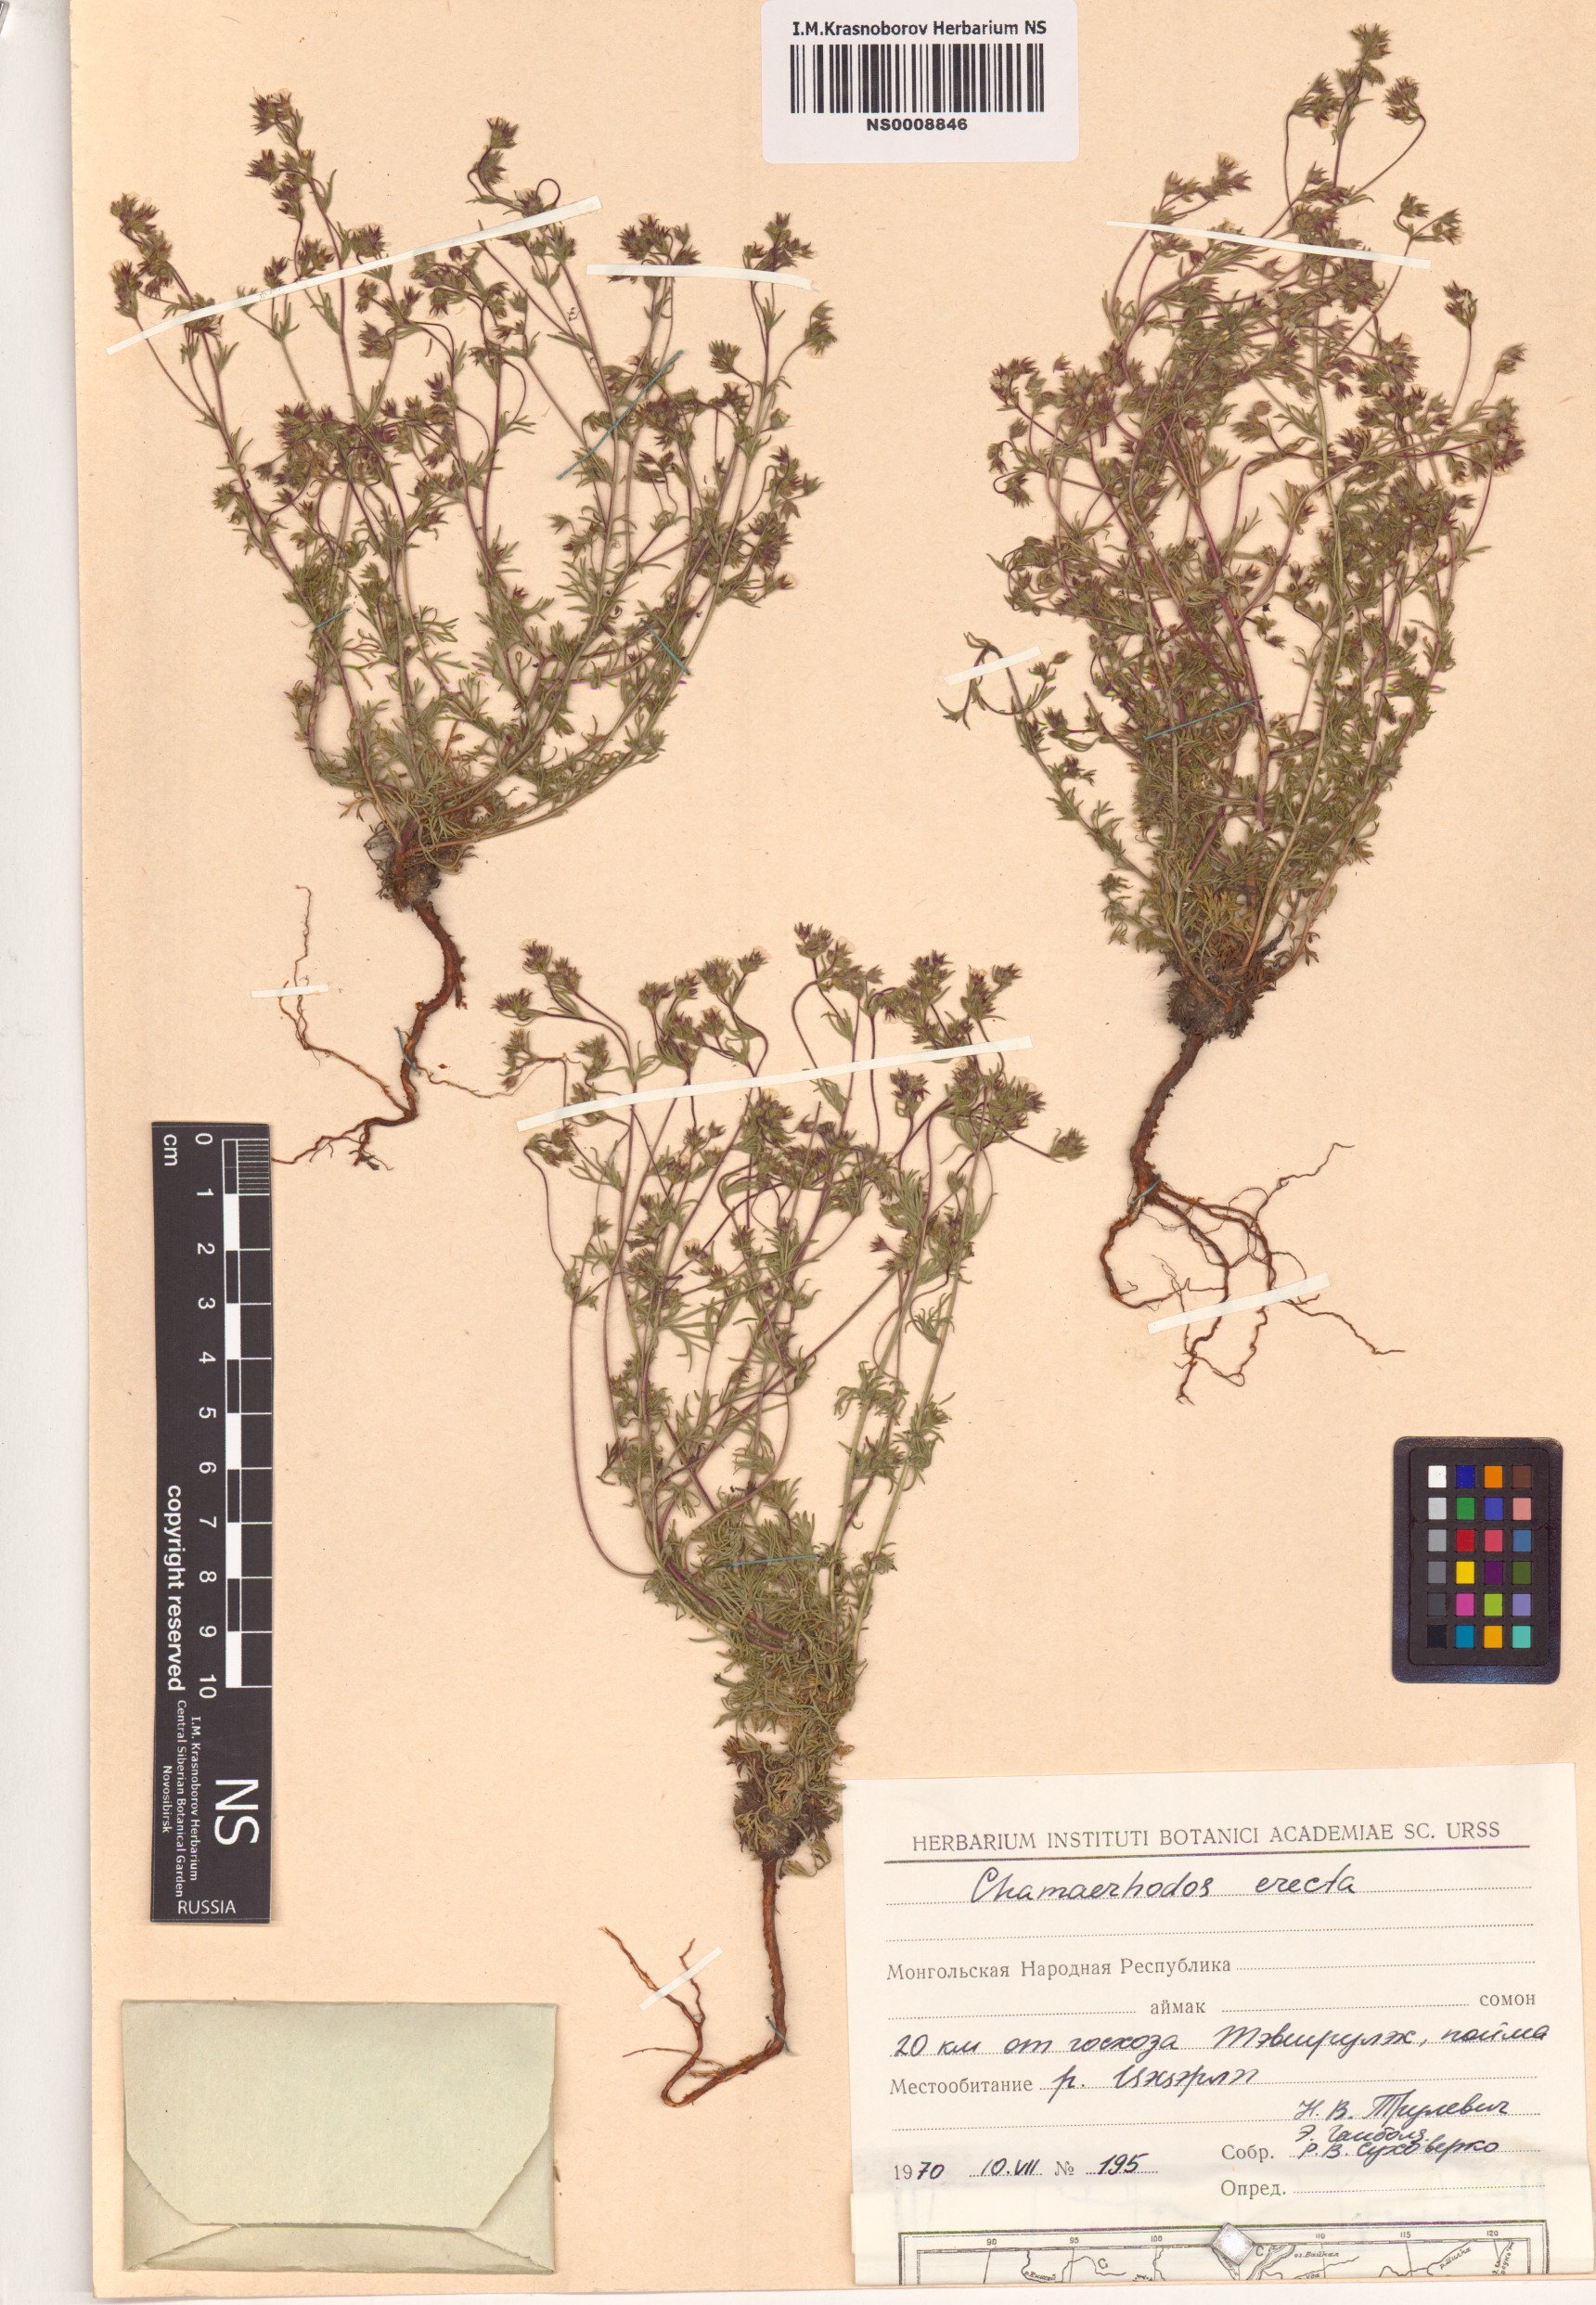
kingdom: Plantae
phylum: Tracheophyta
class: Magnoliopsida
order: Rosales
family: Rosaceae
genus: Chamaerhodos
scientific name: Chamaerhodos erecta
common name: American chamaerhodos
